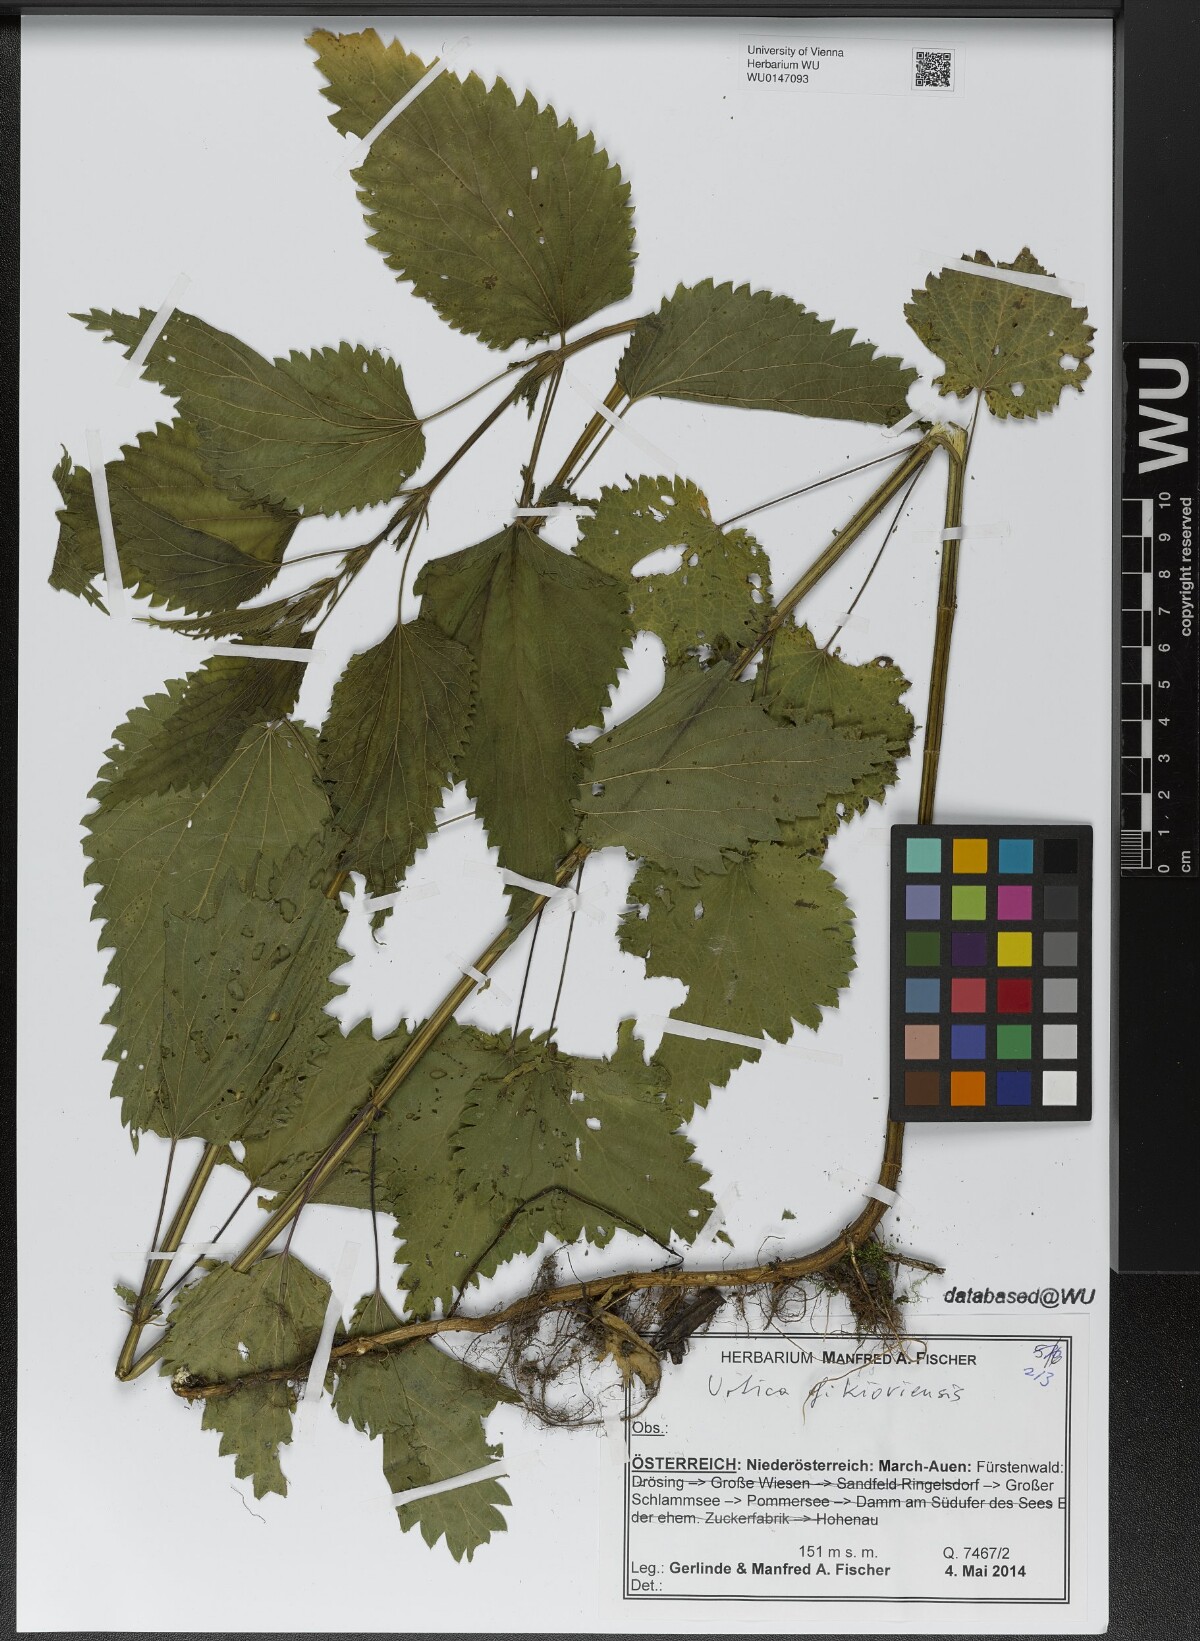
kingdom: Plantae
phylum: Tracheophyta
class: Magnoliopsida
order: Rosales
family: Urticaceae
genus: Urtica
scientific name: Urtica kioviensis
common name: Kievan nettle
